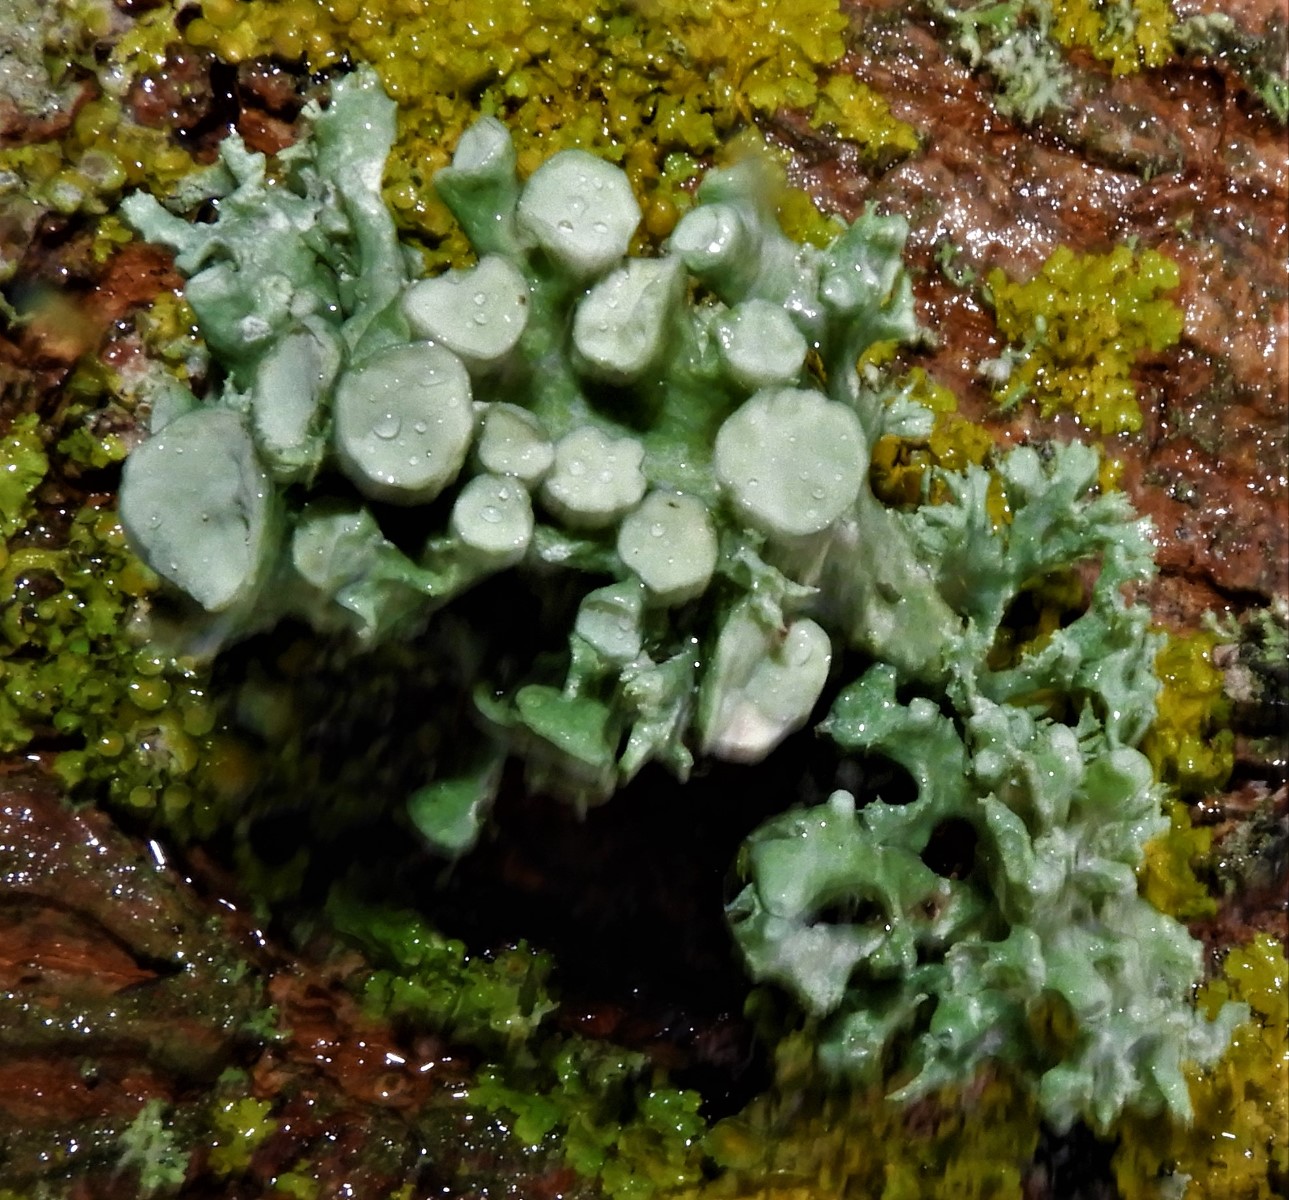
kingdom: Fungi
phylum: Ascomycota
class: Lecanoromycetes
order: Lecanorales
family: Ramalinaceae
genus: Ramalina
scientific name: Ramalina fastigiata
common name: tue-grenlav
